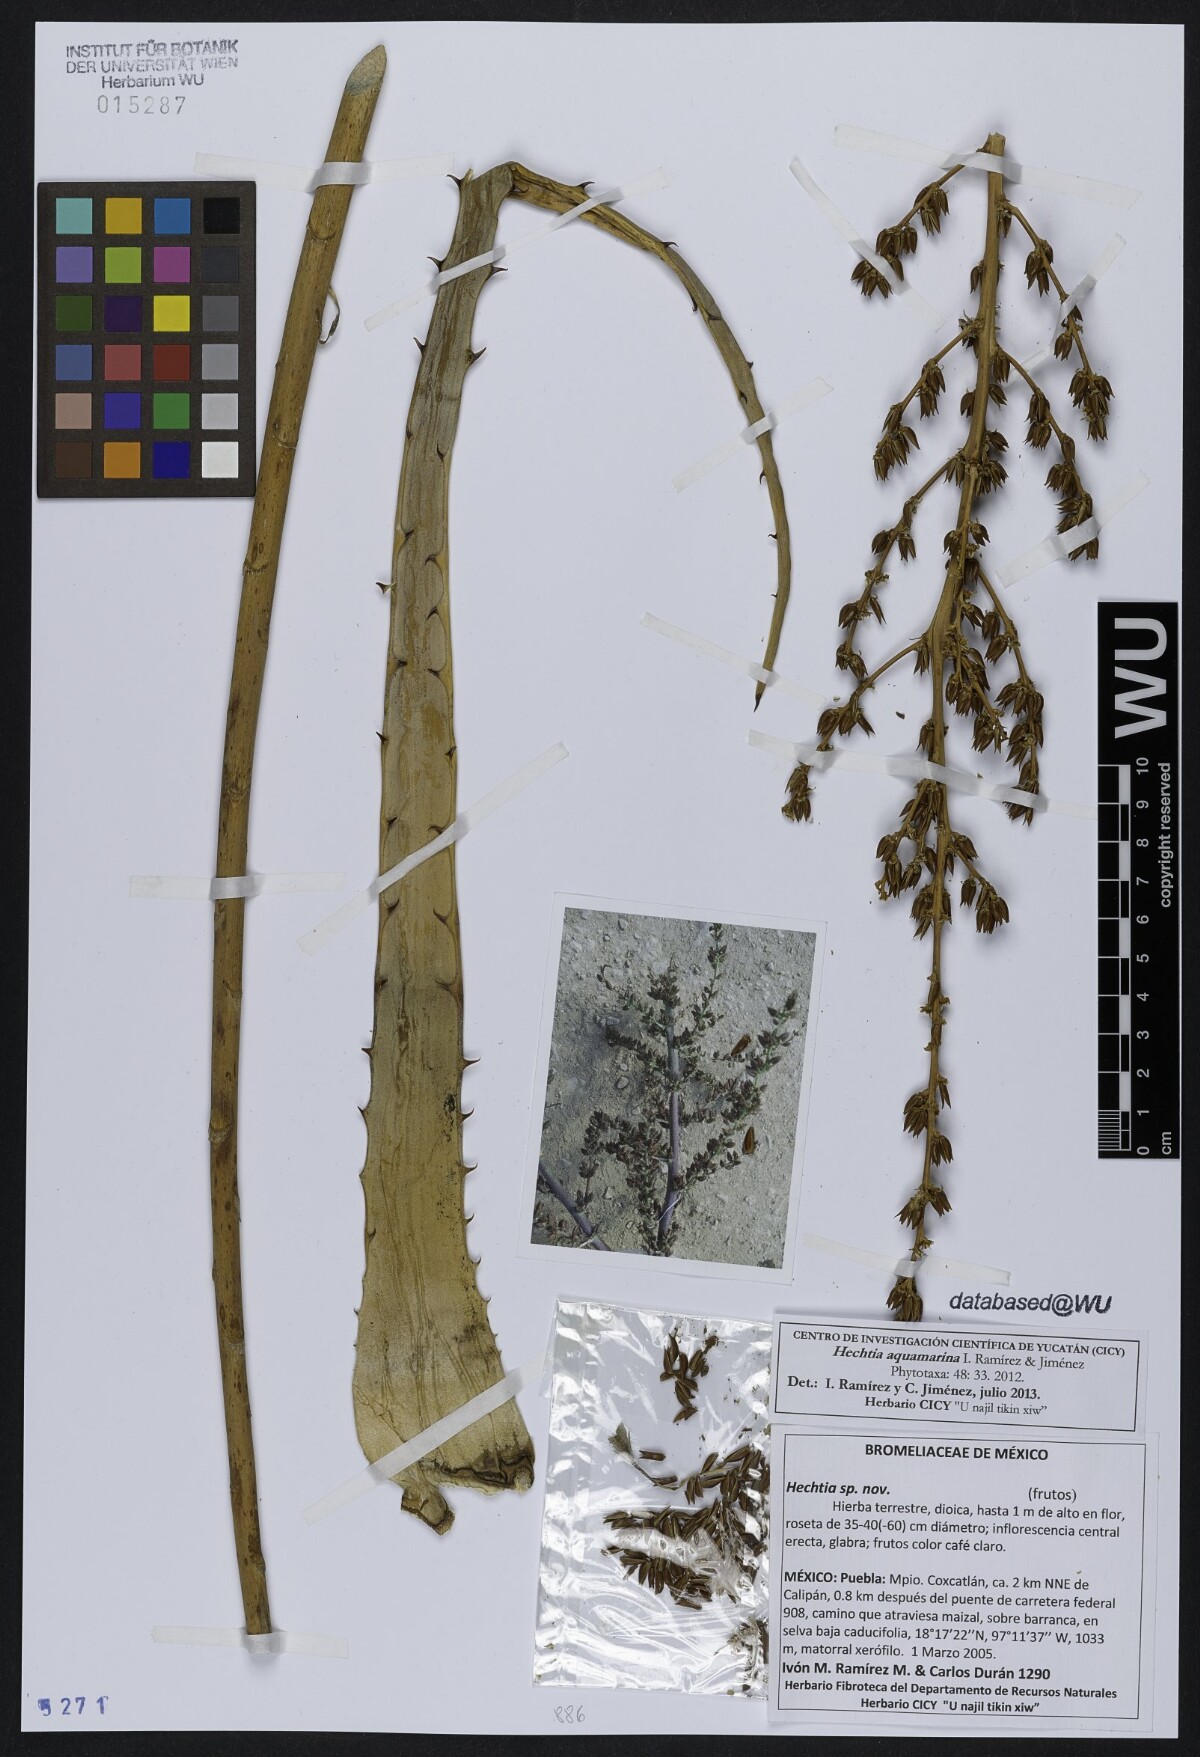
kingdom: Plantae
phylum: Tracheophyta
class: Liliopsida
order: Poales
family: Bromeliaceae
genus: Hechtia
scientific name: Hechtia aquamarina
